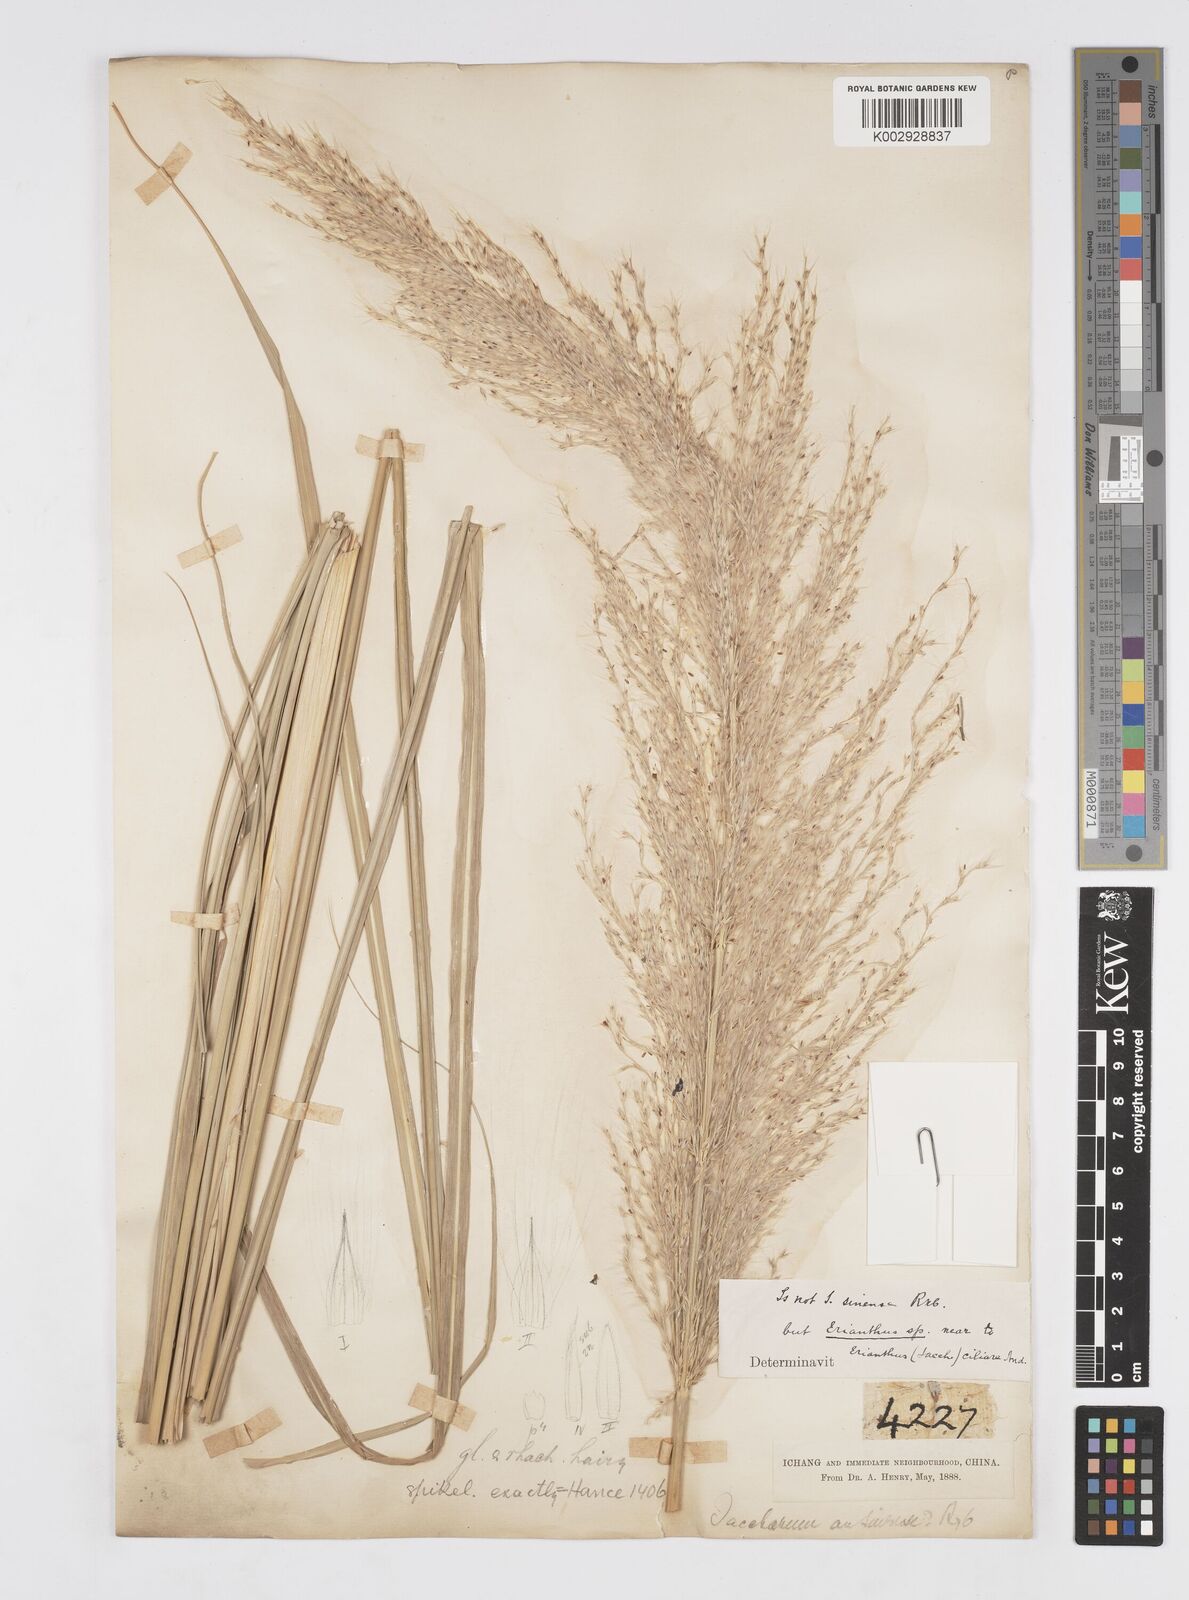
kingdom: Plantae
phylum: Tracheophyta
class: Liliopsida
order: Poales
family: Poaceae
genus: Erianthus
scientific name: Erianthus
